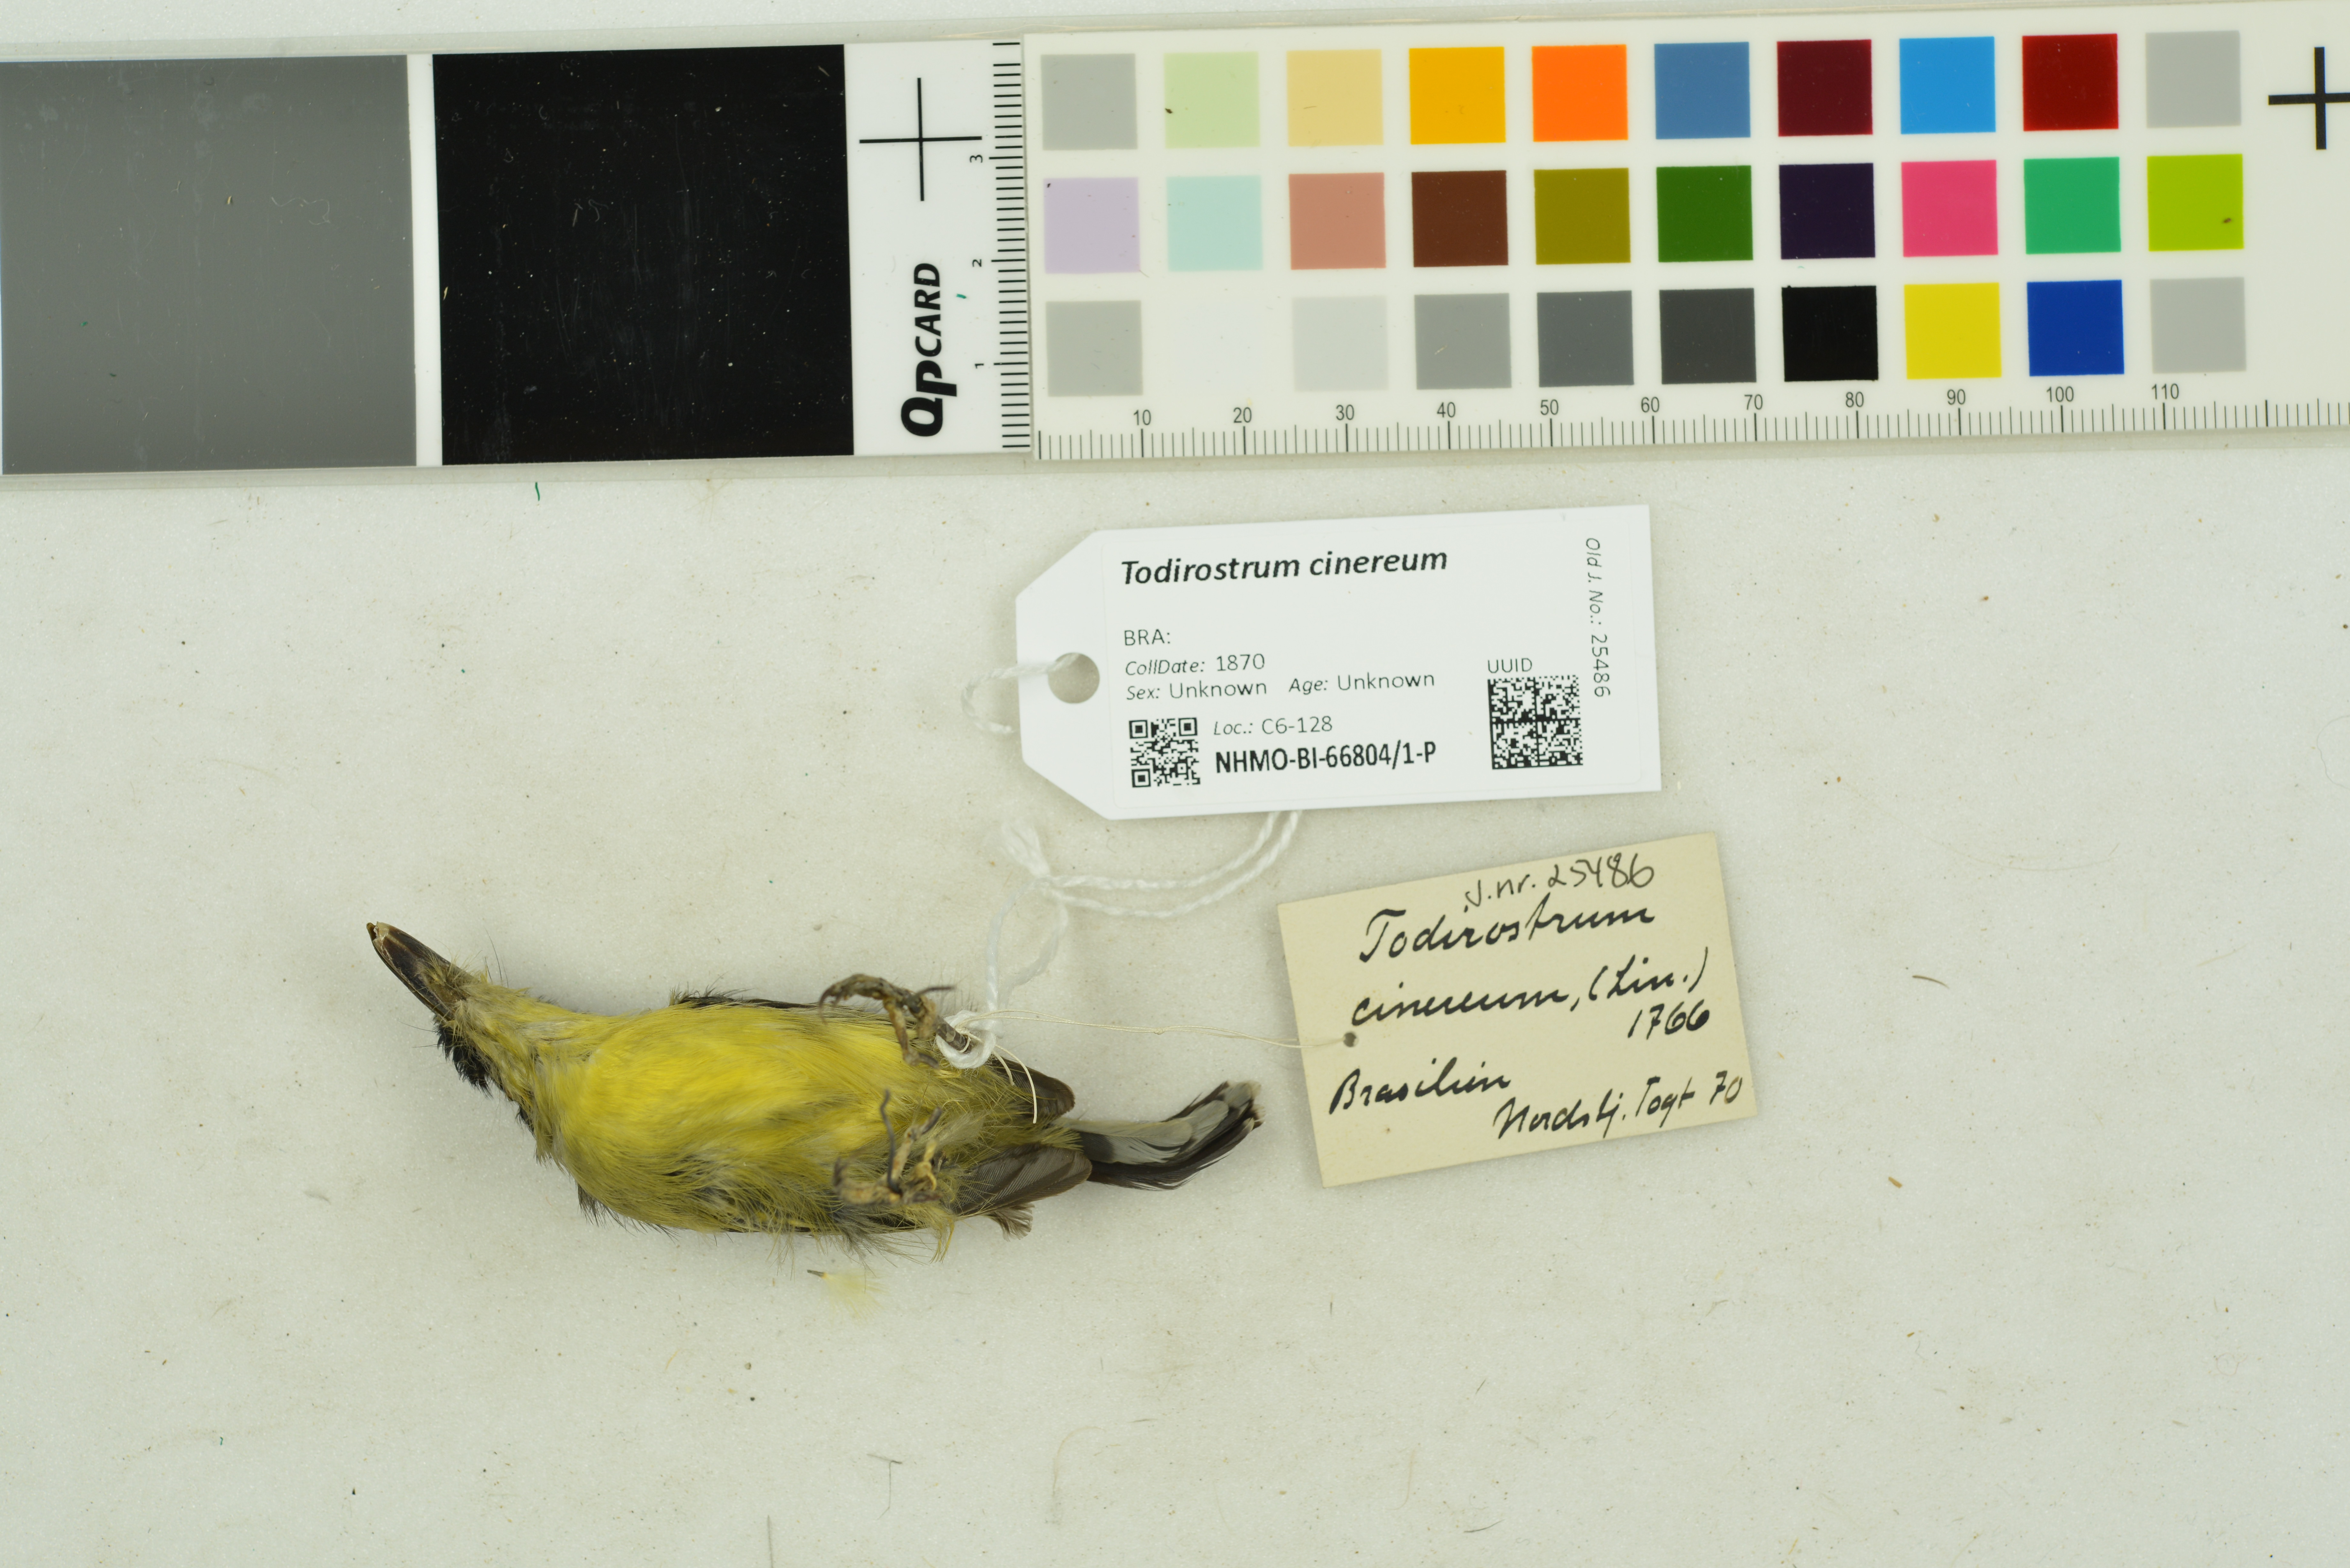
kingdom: Animalia
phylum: Chordata
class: Aves
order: Passeriformes
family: Tyrannidae
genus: Todirostrum
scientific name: Todirostrum cinereum
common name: Common tody-flycatcher
